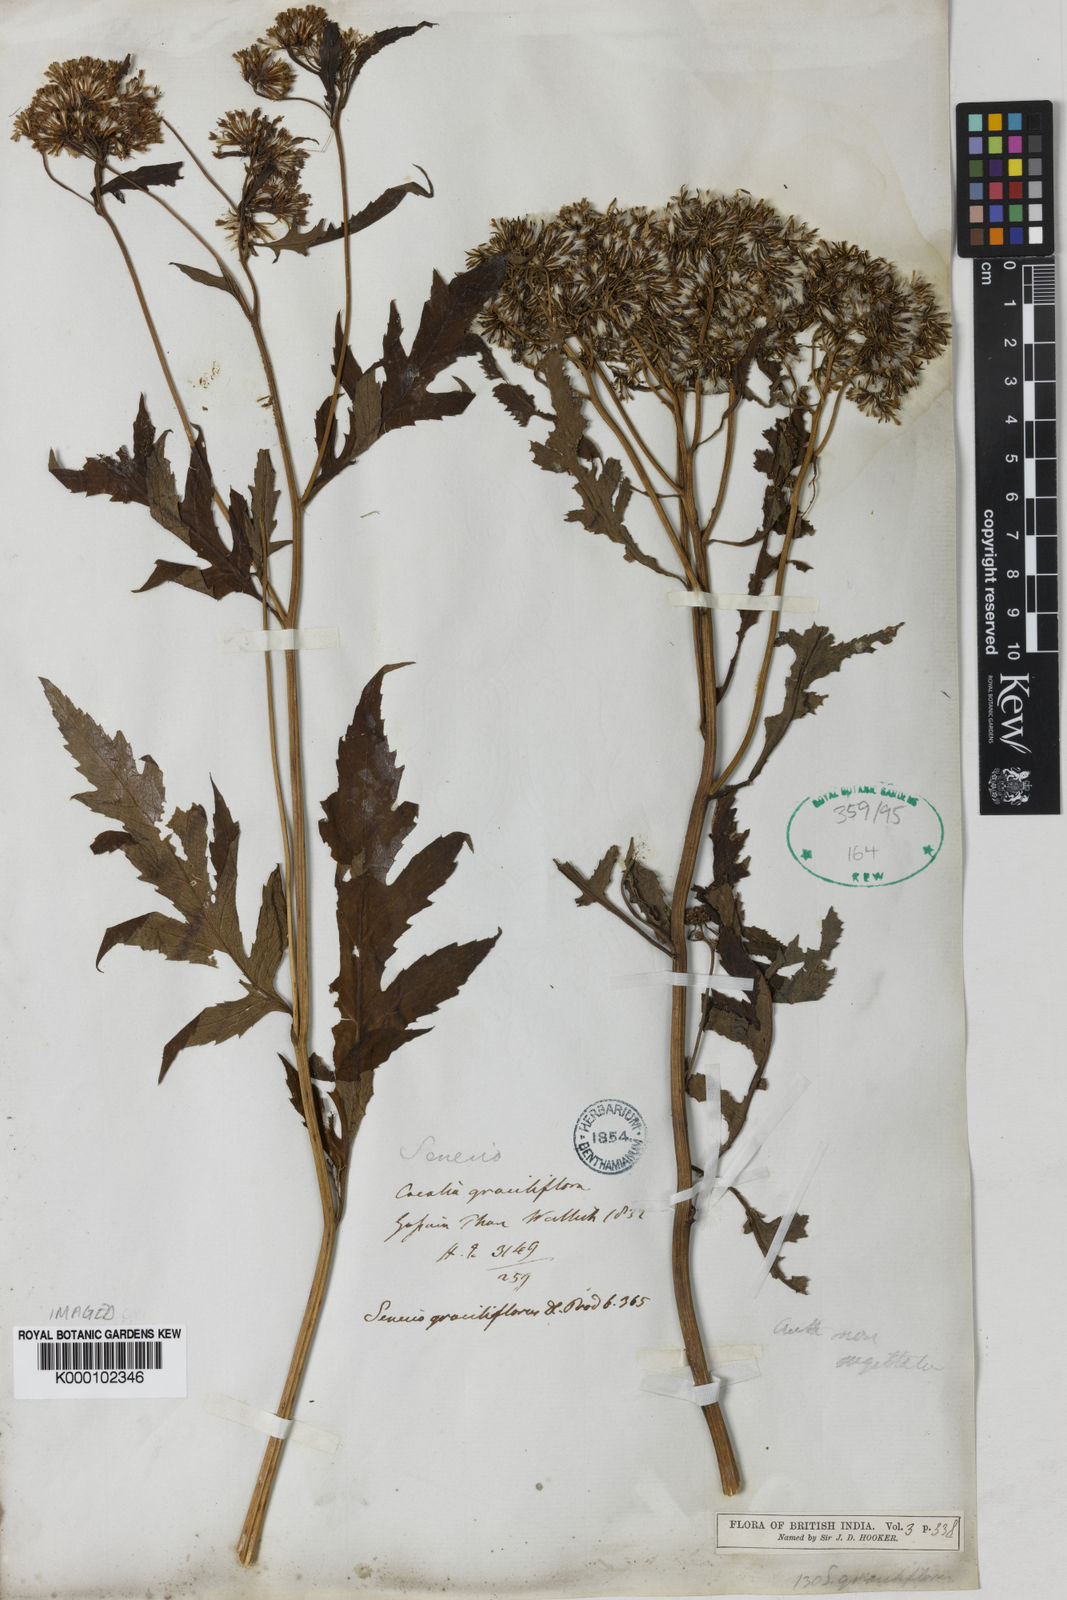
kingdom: Plantae
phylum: Tracheophyta
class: Magnoliopsida
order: Asterales
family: Asteraceae
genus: Jacobaea
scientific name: Jacobaea graciliflora
